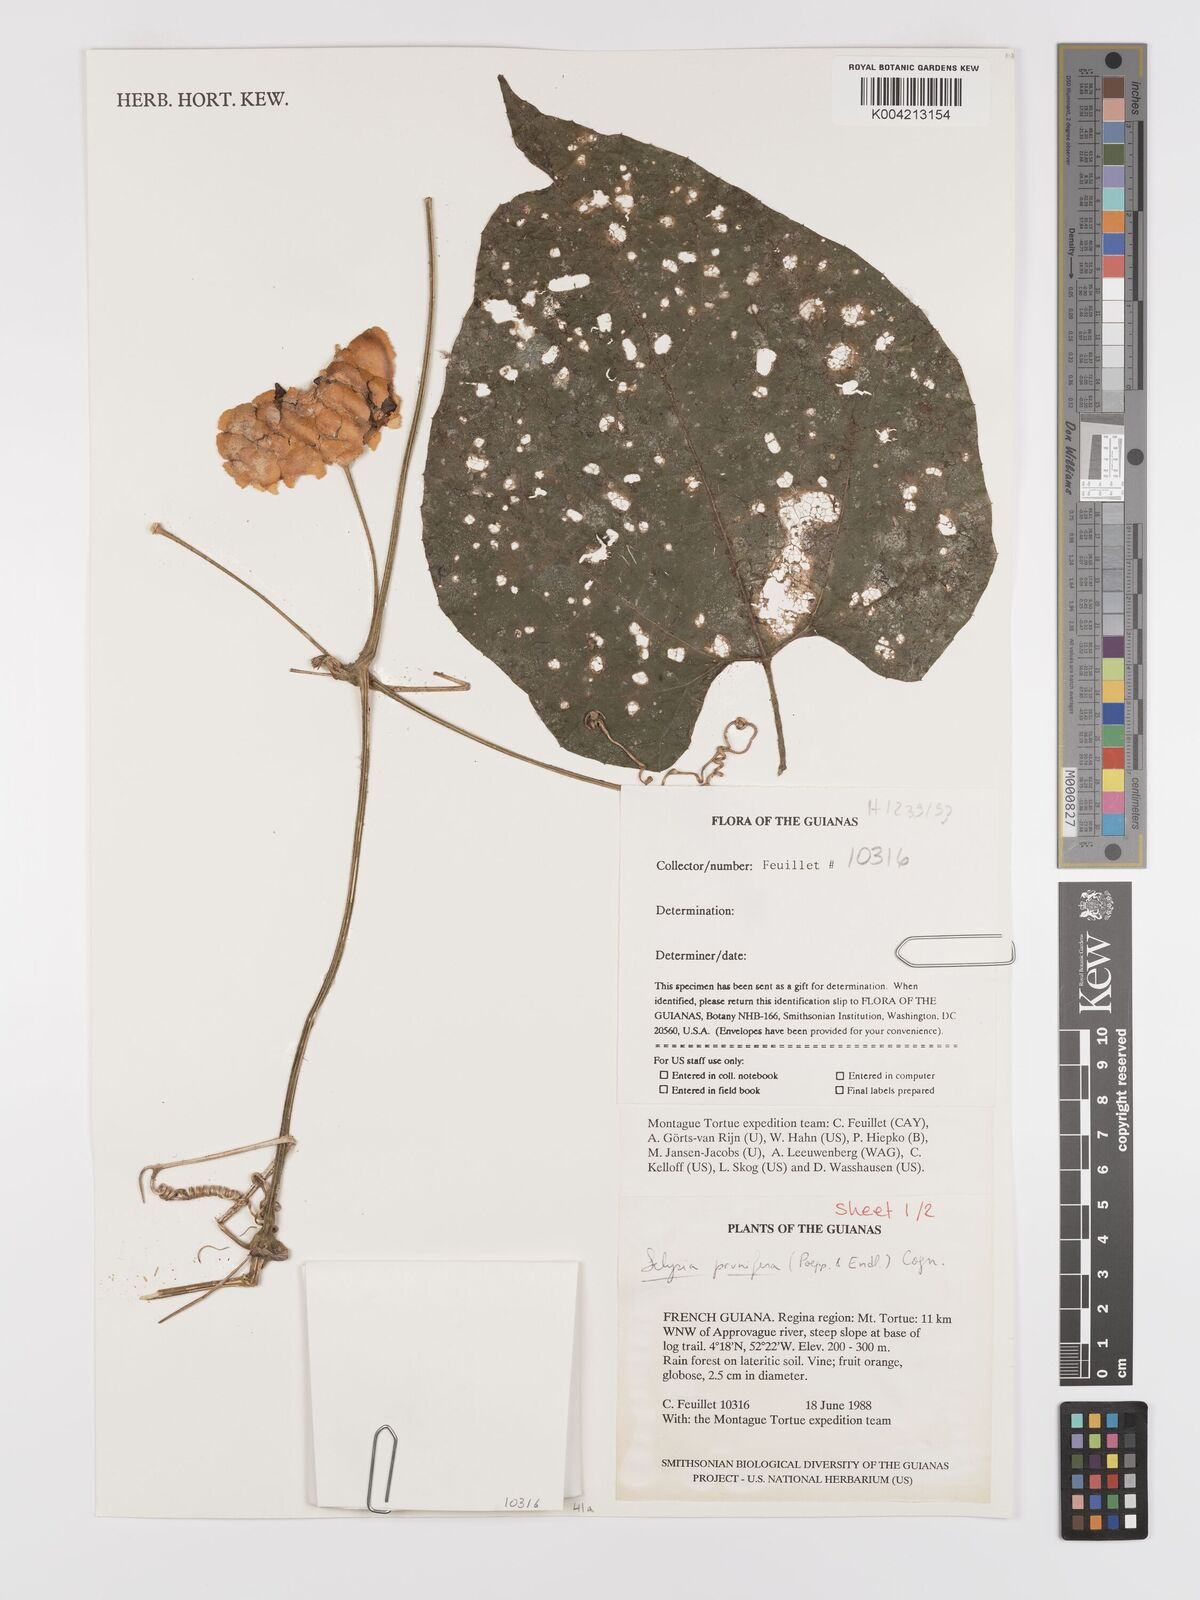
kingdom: Plantae
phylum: Tracheophyta
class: Magnoliopsida
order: Cucurbitales
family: Cucurbitaceae
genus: Cayaponia
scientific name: Cayaponia prunifera
